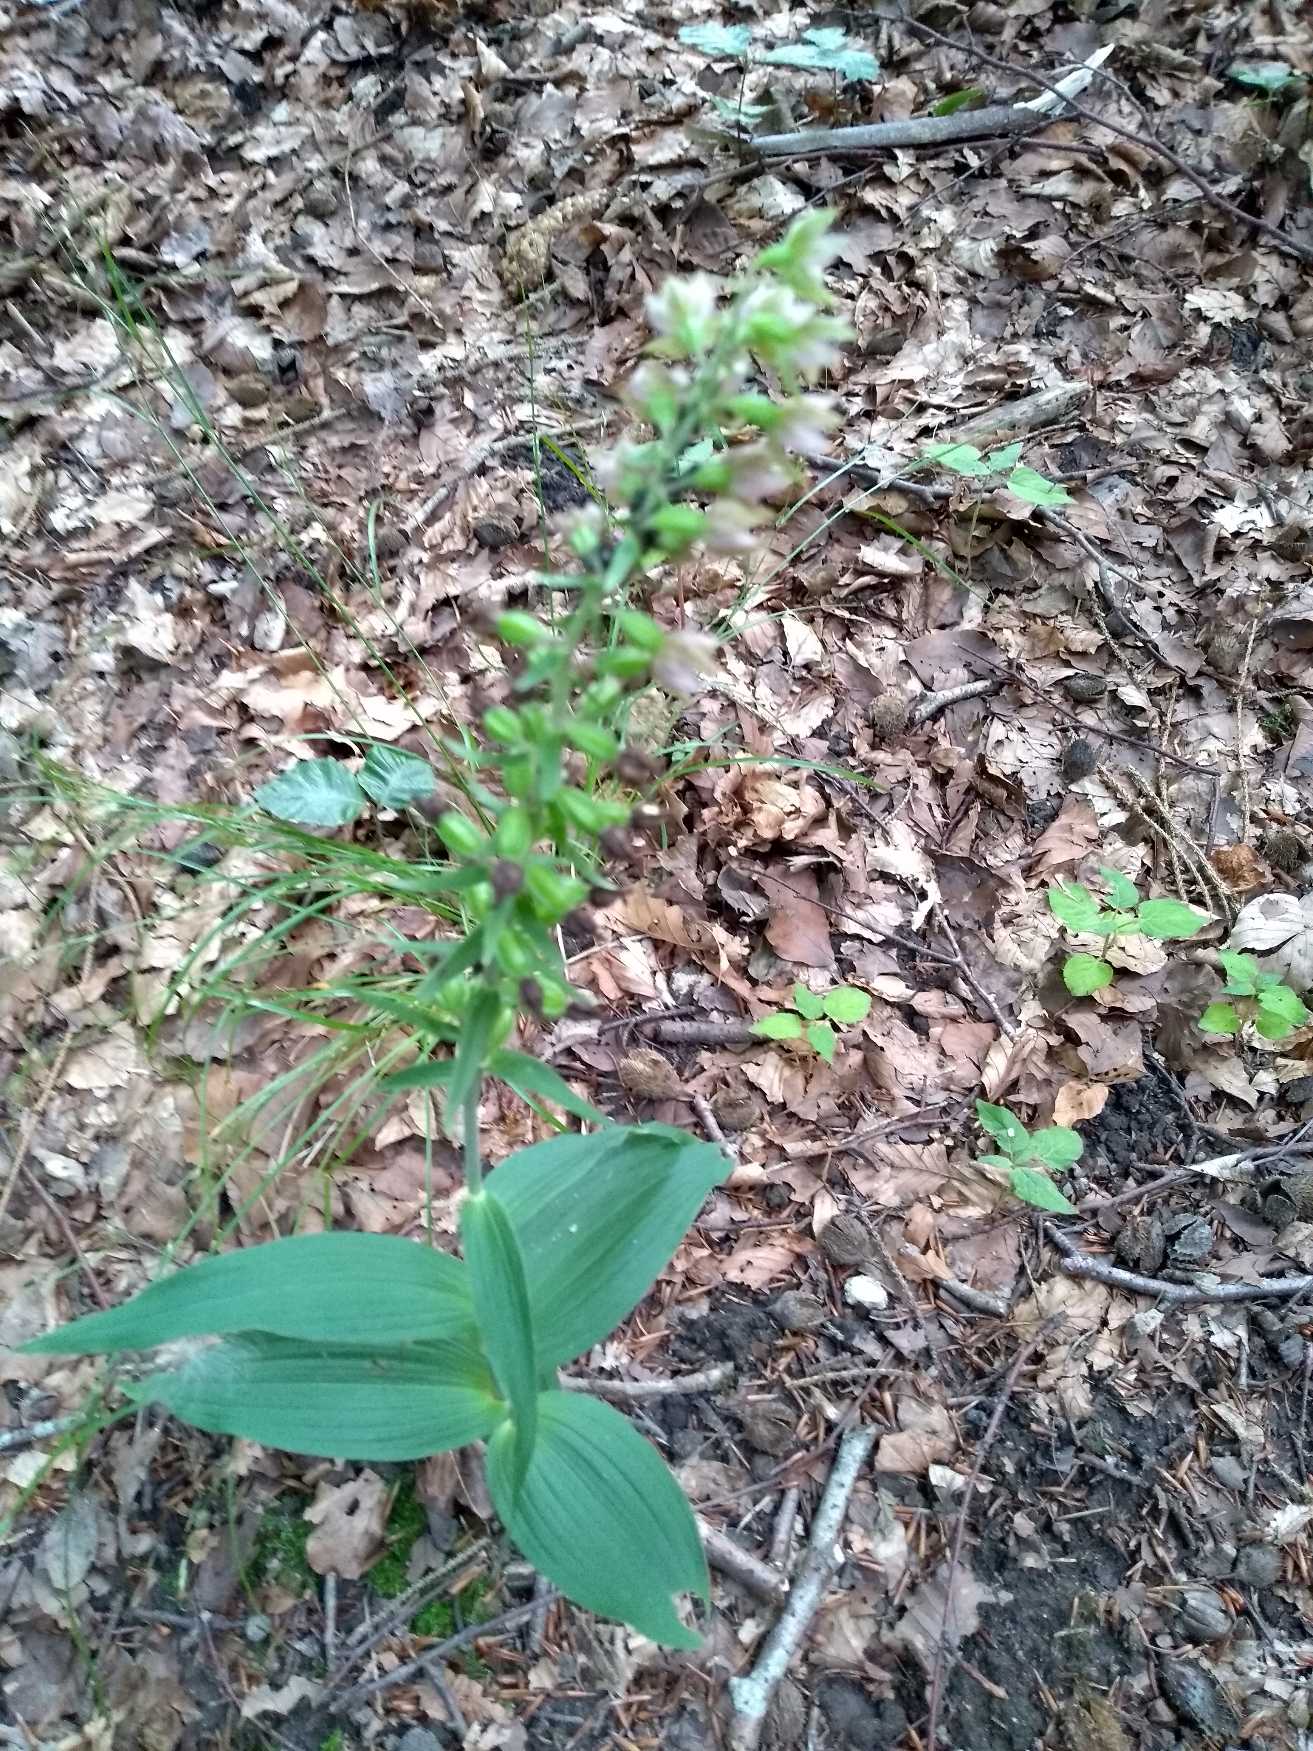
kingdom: Plantae
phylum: Tracheophyta
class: Liliopsida
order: Asparagales
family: Orchidaceae
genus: Epipactis
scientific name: Epipactis helleborine
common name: Skov-hullæbe
